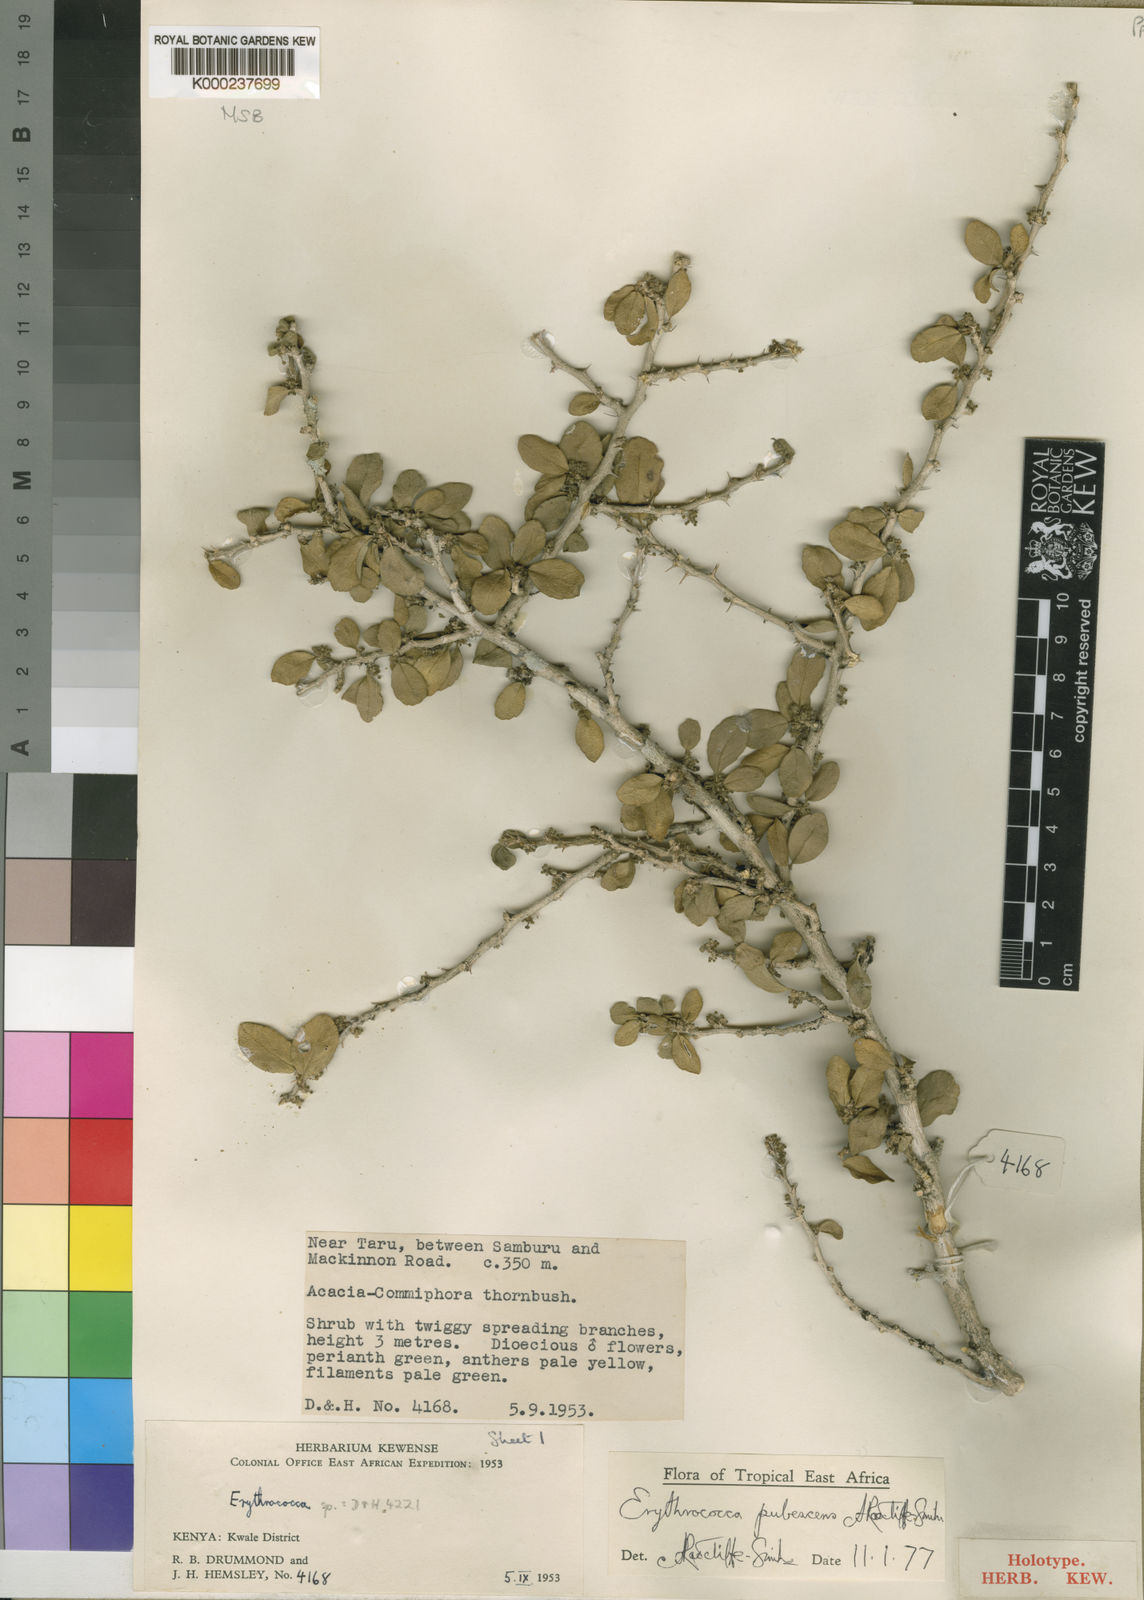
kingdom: Plantae
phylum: Tracheophyta
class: Magnoliopsida
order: Malpighiales
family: Euphorbiaceae
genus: Erythrococca
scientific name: Erythrococca
